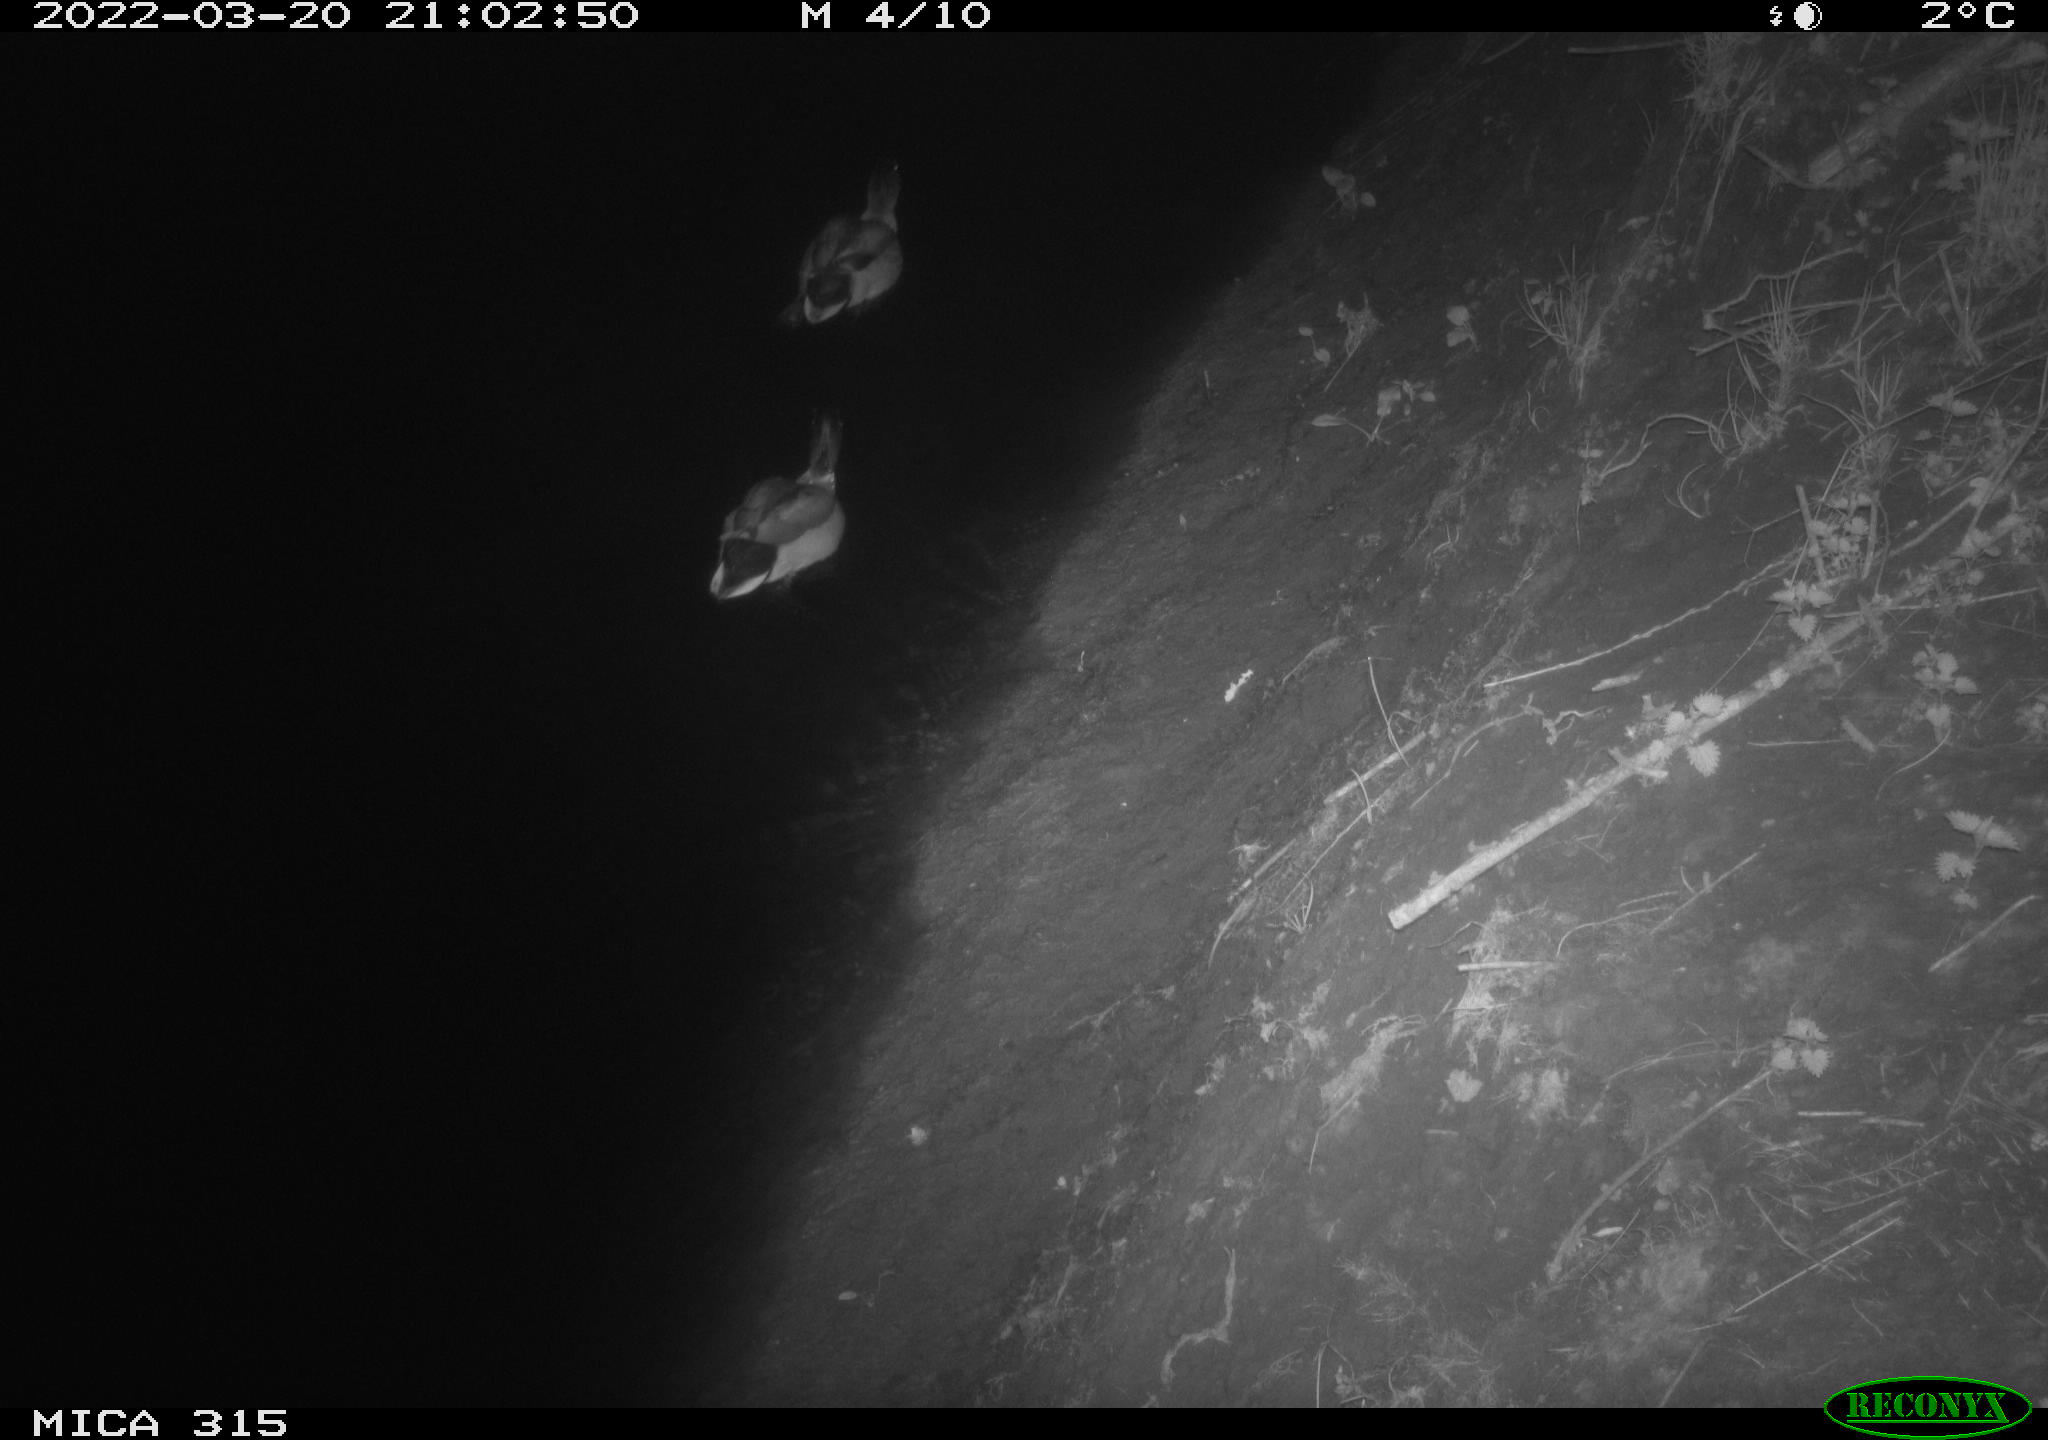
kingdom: Animalia
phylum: Chordata
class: Mammalia
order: Rodentia
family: Muridae
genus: Rattus
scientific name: Rattus norvegicus
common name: Brown rat
